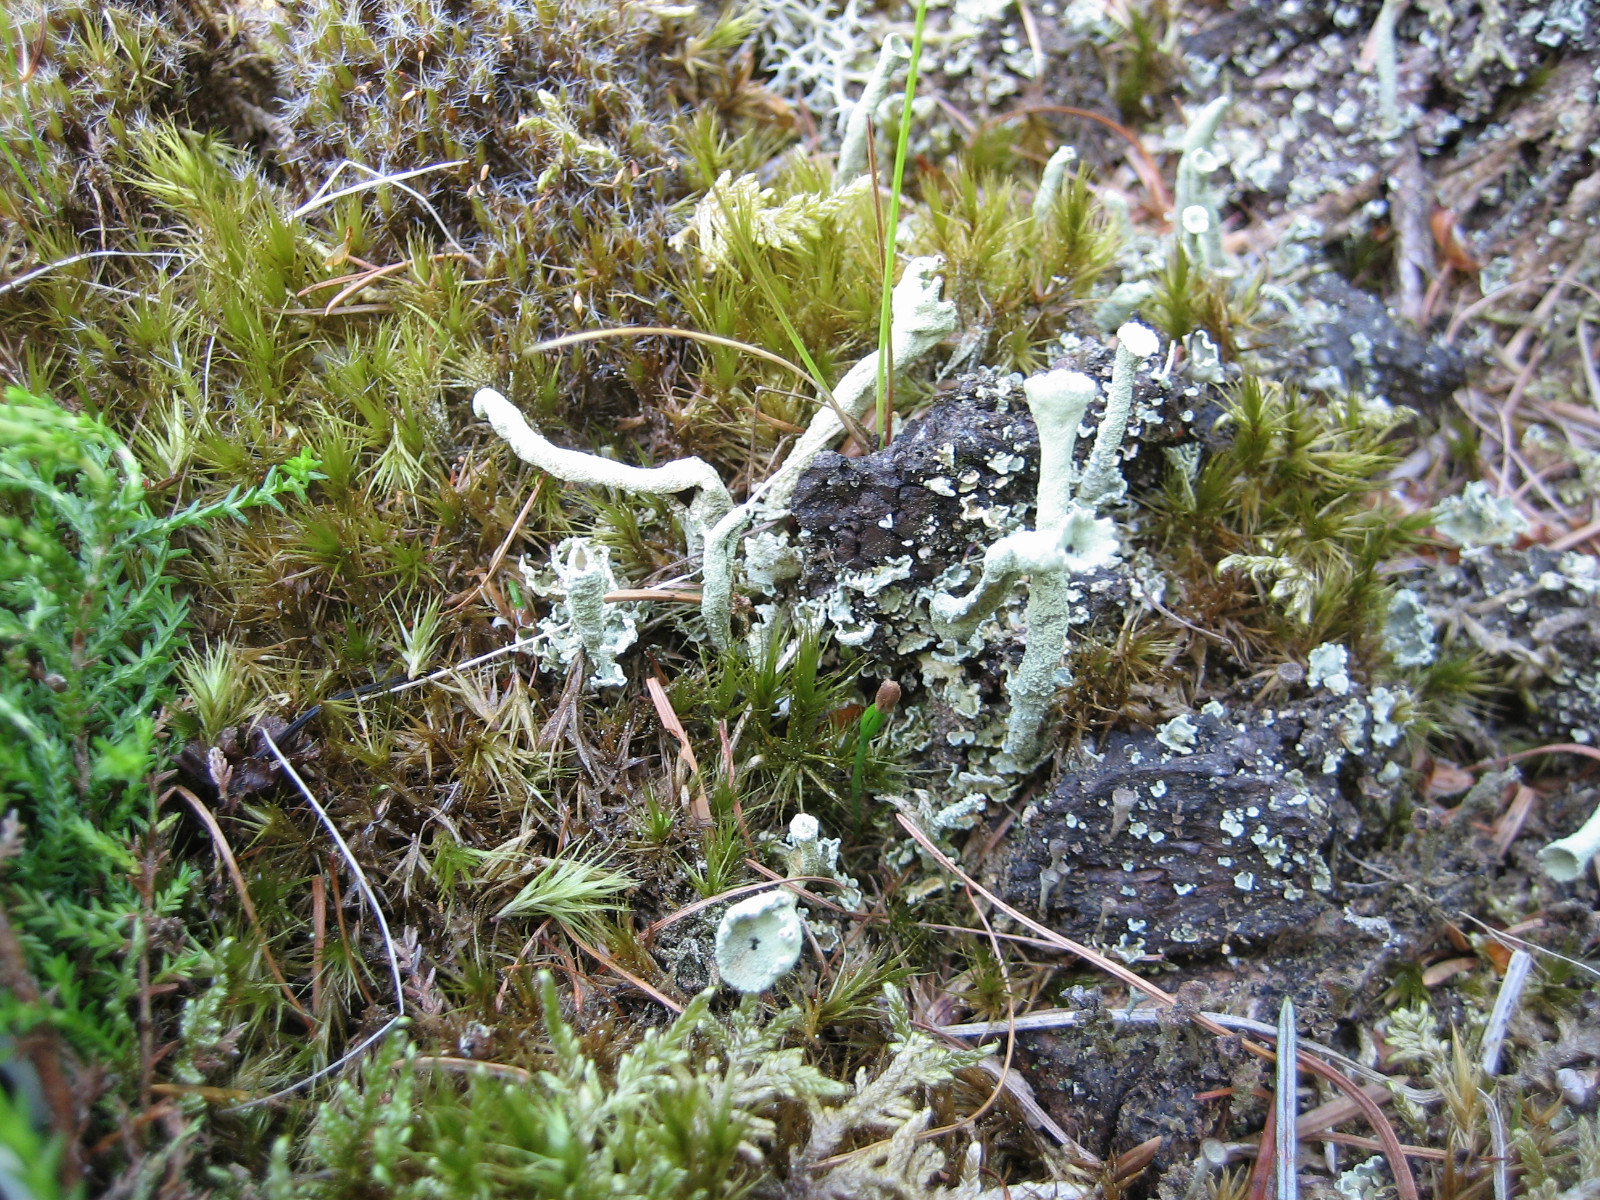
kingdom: Fungi
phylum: Ascomycota
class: Lecanoromycetes
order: Lecanorales
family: Cladoniaceae
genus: Cladonia
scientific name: Cladonia sulphurina
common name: opblæst bægerlav
